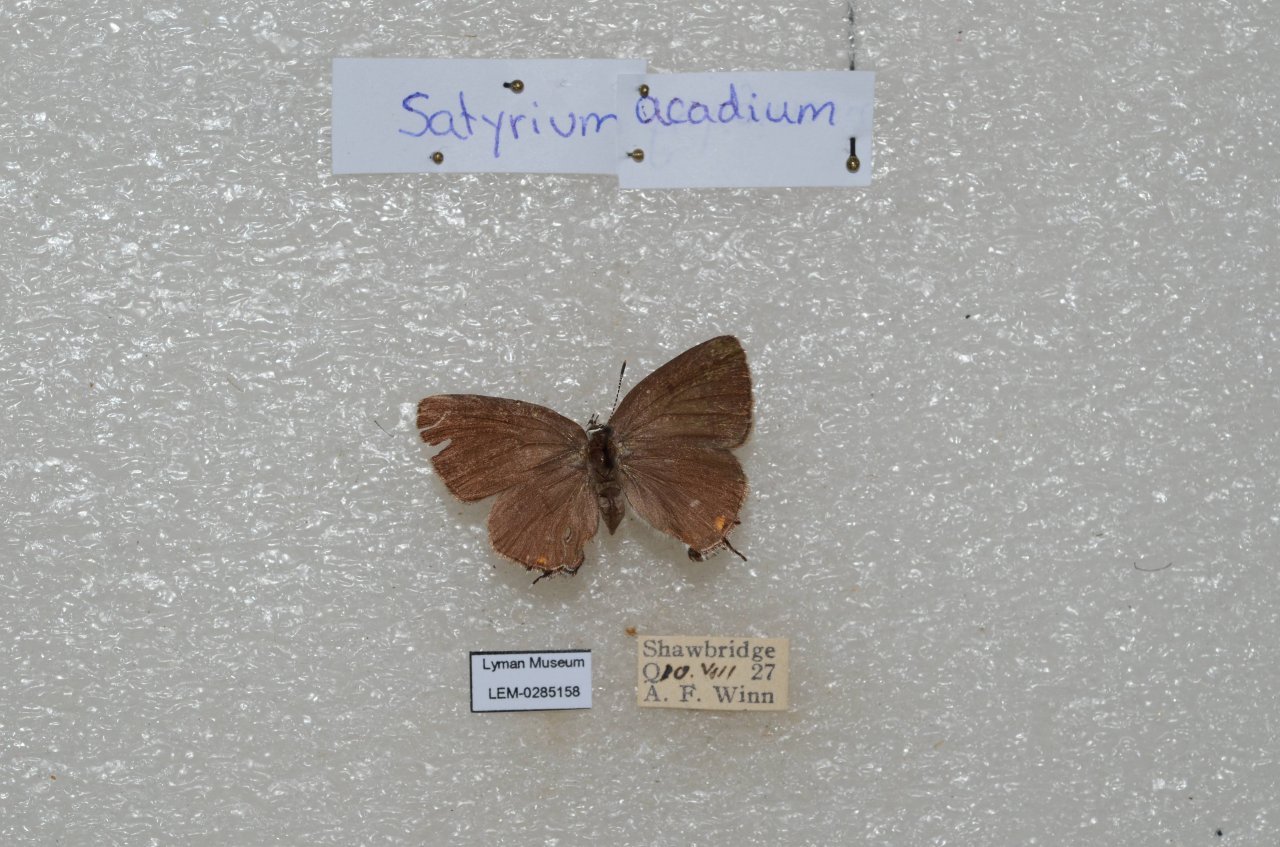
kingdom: Animalia
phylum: Arthropoda
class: Insecta
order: Lepidoptera
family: Lycaenidae
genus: Strymon
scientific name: Strymon acadica
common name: Acadian Hairstreak
